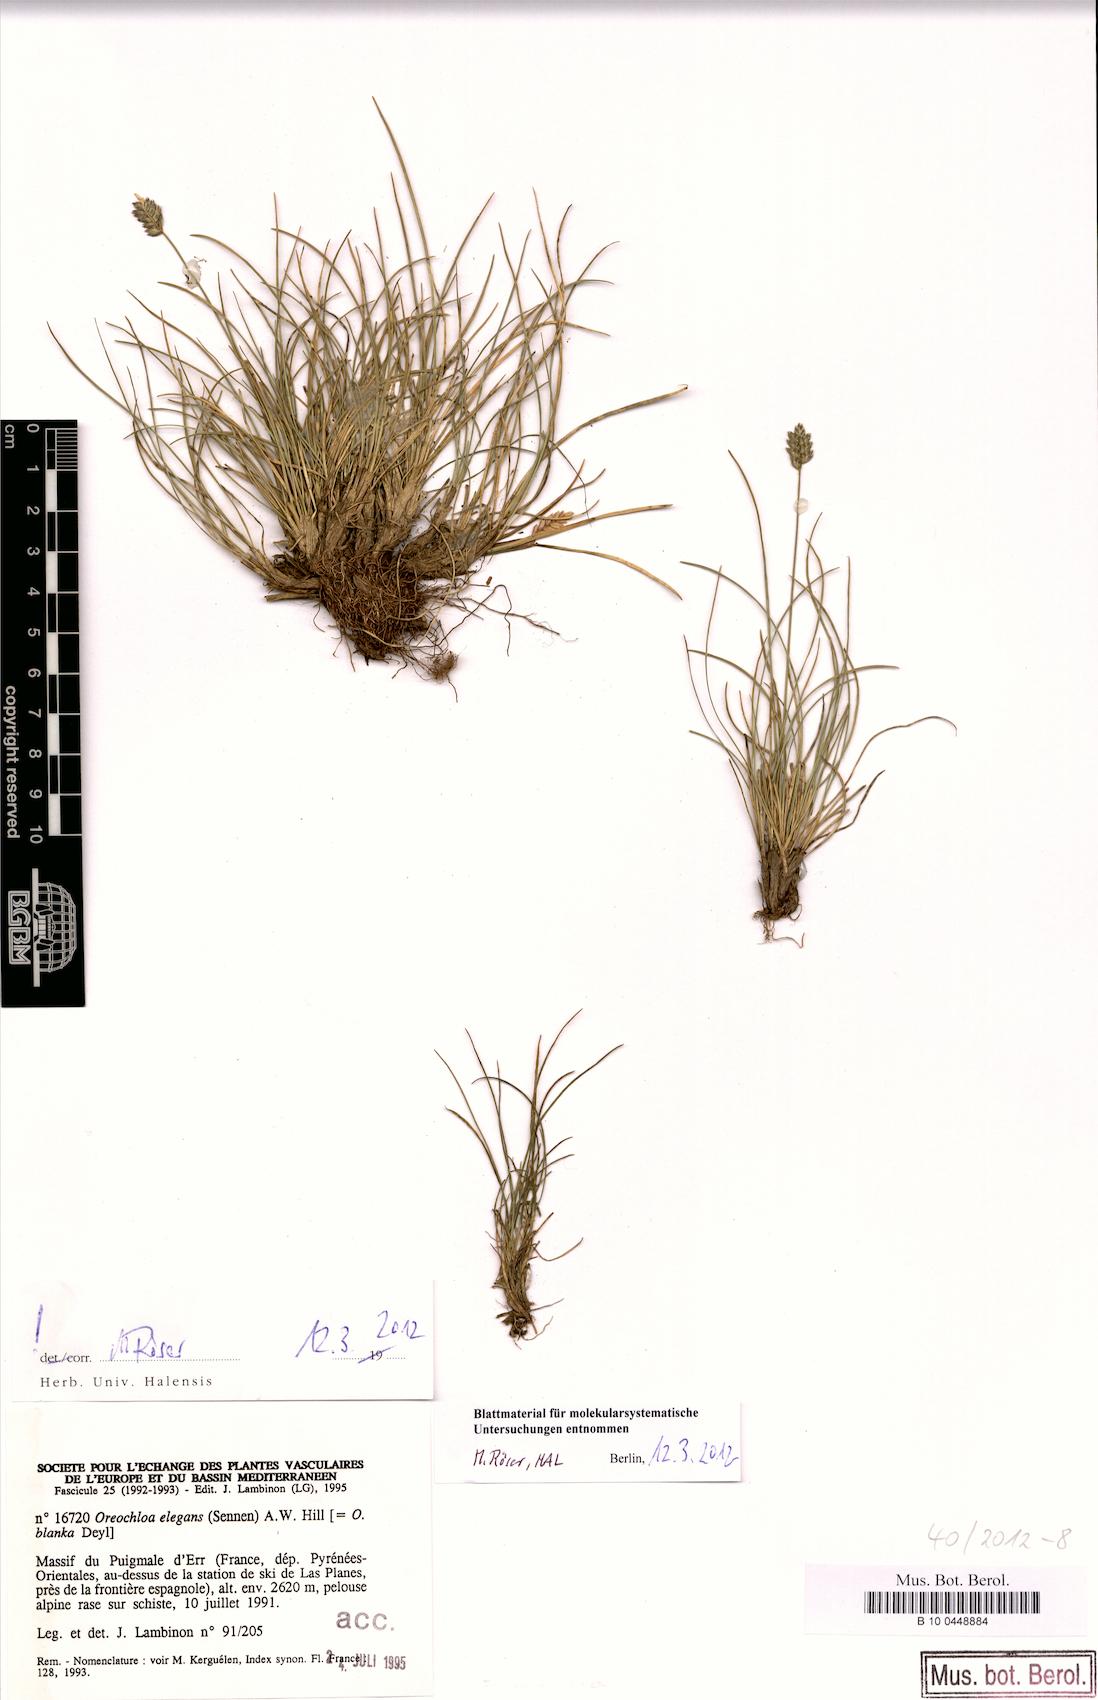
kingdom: Plantae
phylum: Tracheophyta
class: Liliopsida
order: Poales
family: Poaceae
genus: Oreochloa
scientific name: Oreochloa elegans
